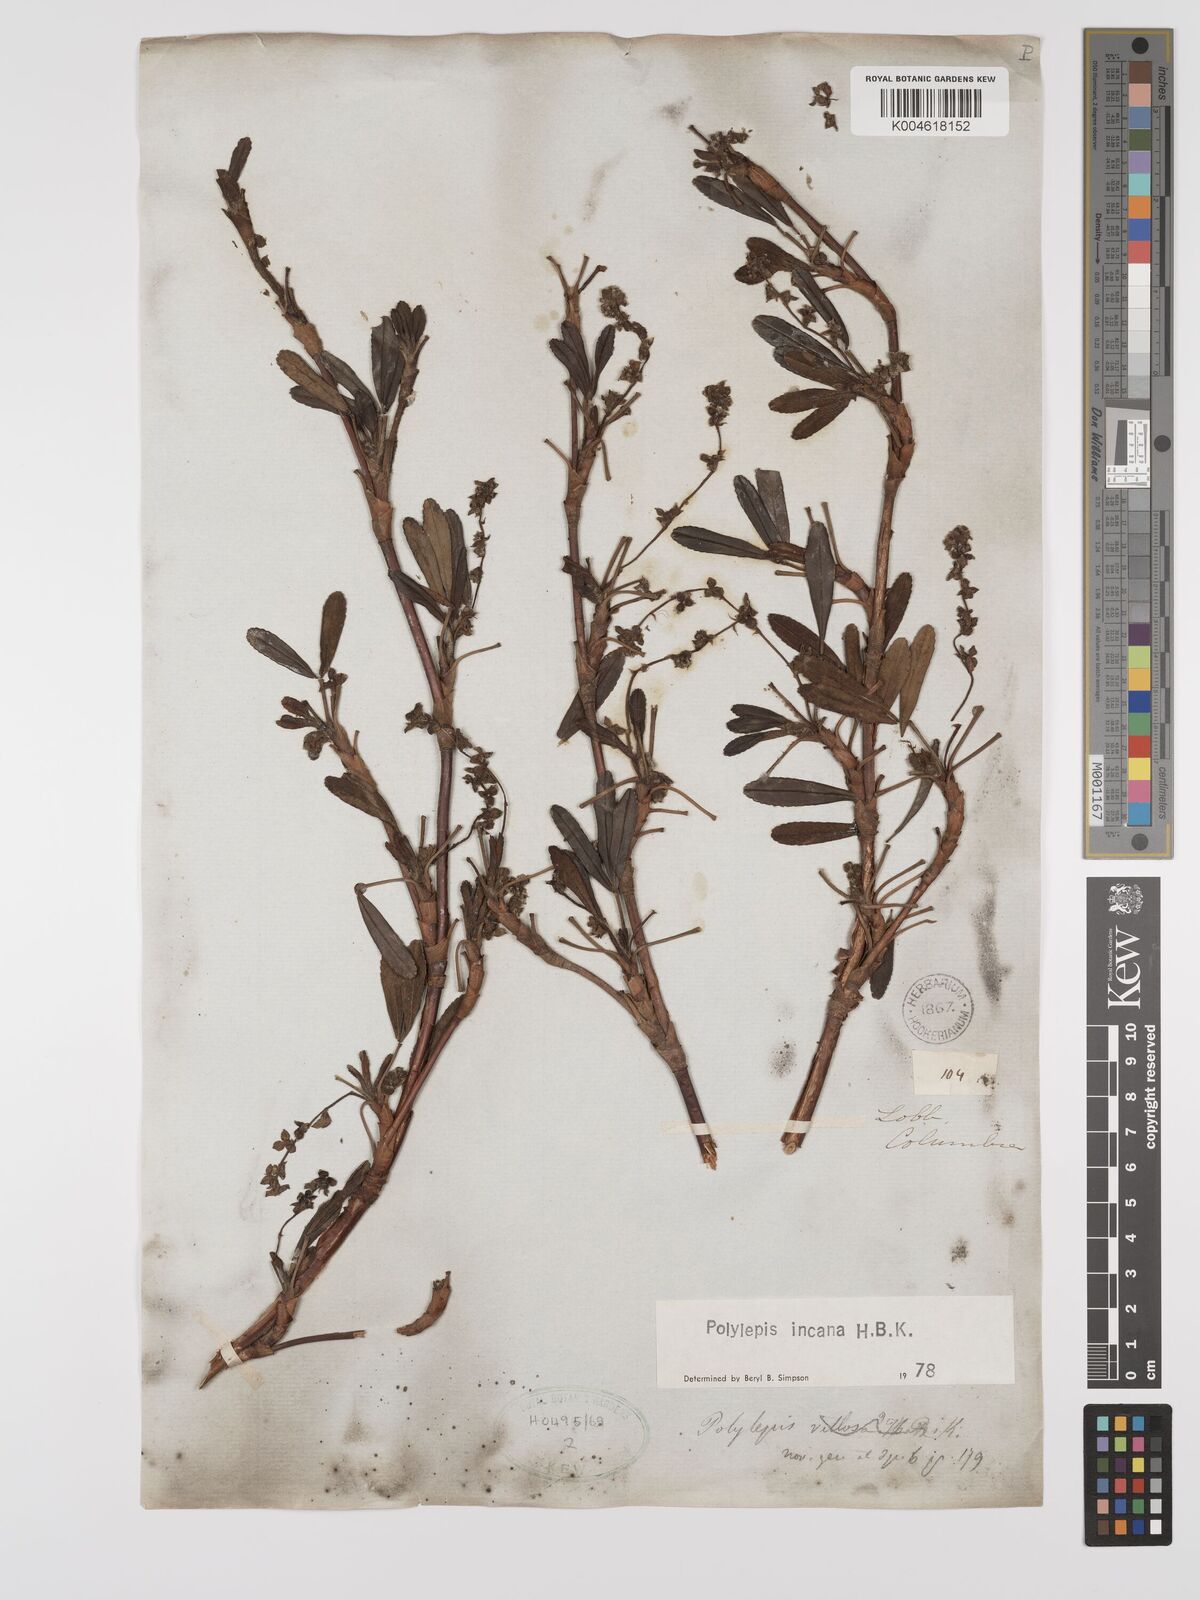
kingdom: Plantae
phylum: Tracheophyta
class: Magnoliopsida
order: Rosales
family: Rosaceae
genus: Polylepis
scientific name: Polylepis incana
